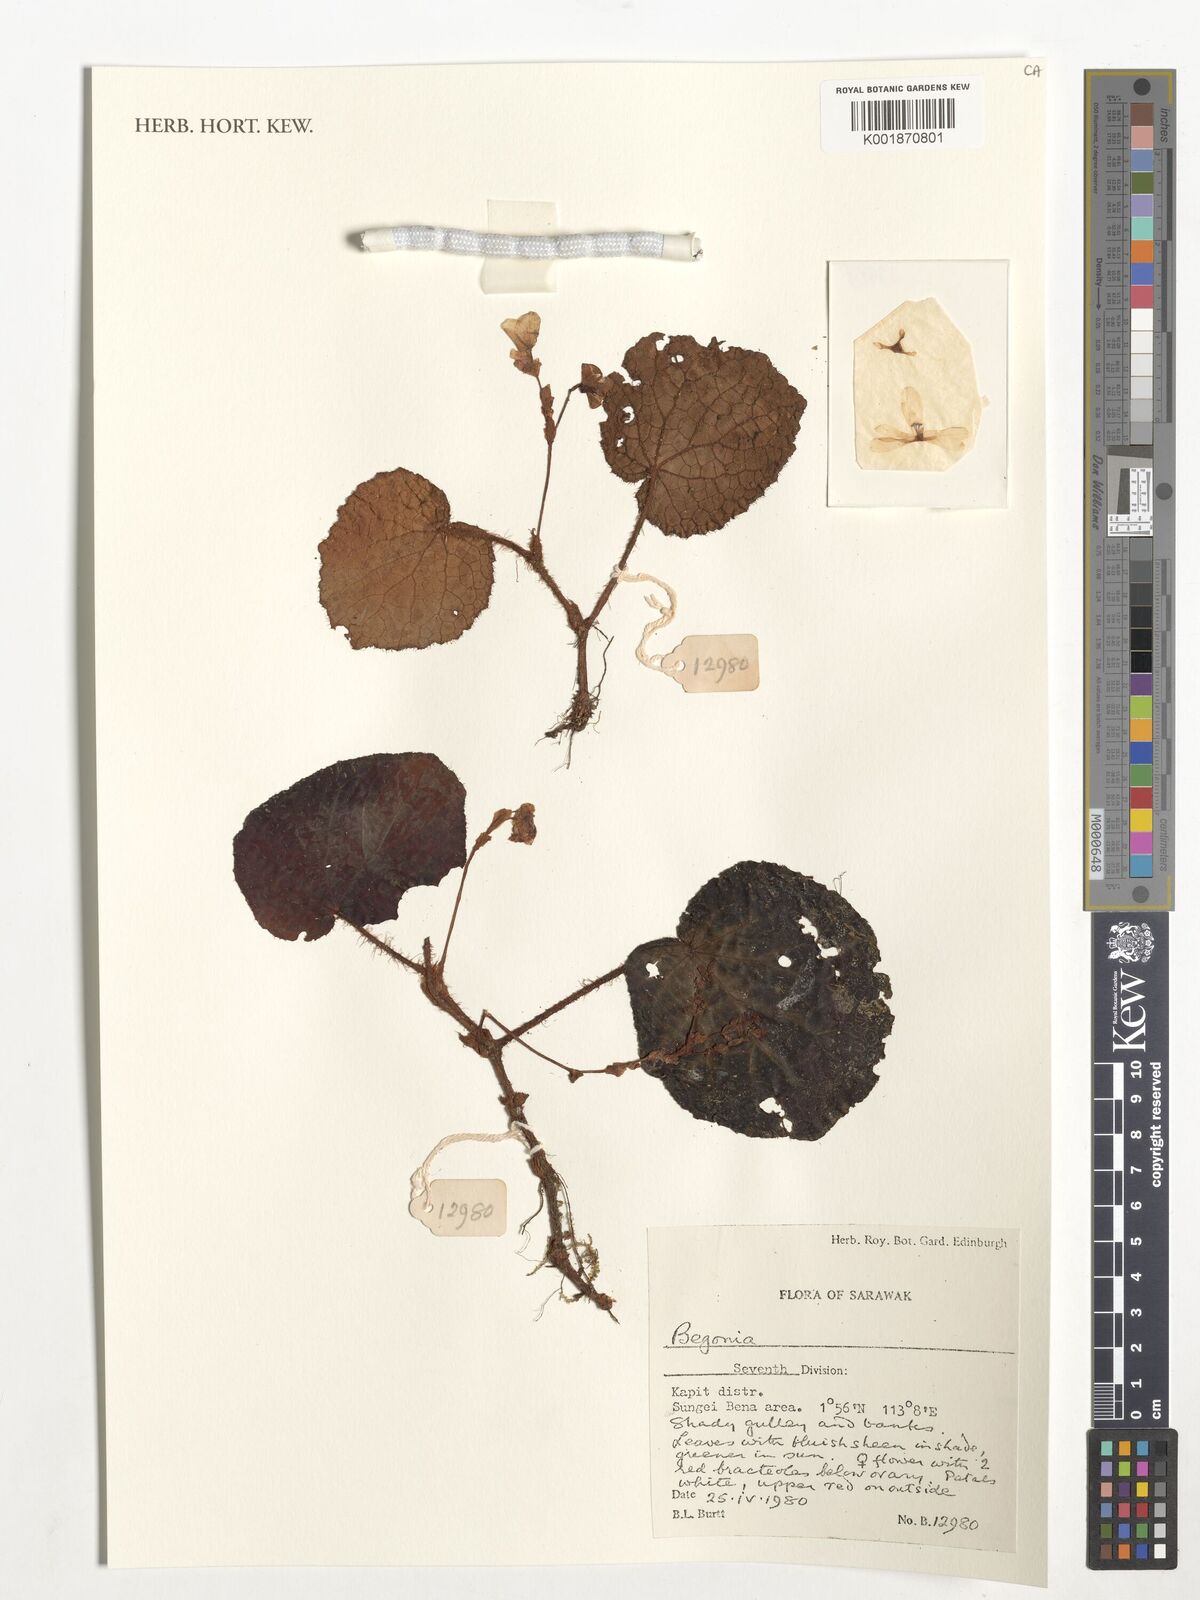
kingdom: Plantae
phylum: Tracheophyta
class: Magnoliopsida
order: Cucurbitales
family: Begoniaceae
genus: Begonia
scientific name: Begonia
